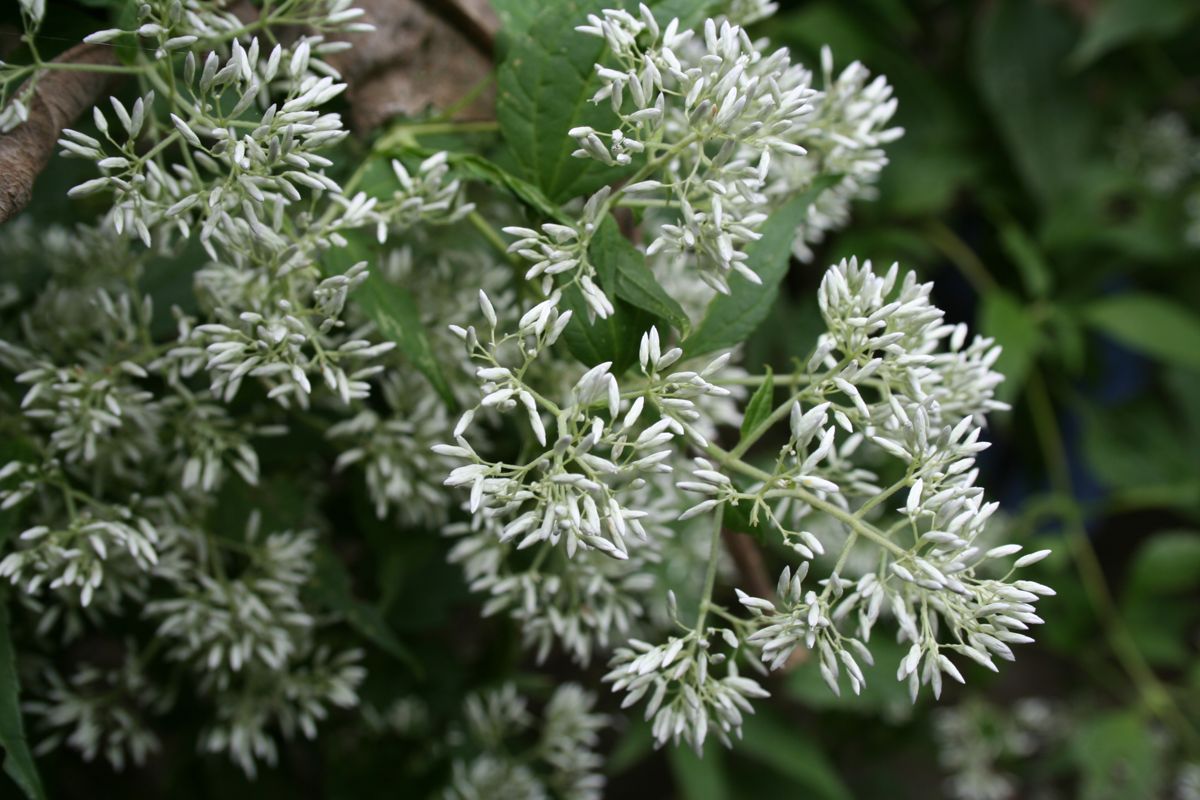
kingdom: Plantae
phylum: Tracheophyta
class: Magnoliopsida
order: Asterales
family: Asteraceae
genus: Fleischmanniopsis
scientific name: Fleischmanniopsis leucocephala
